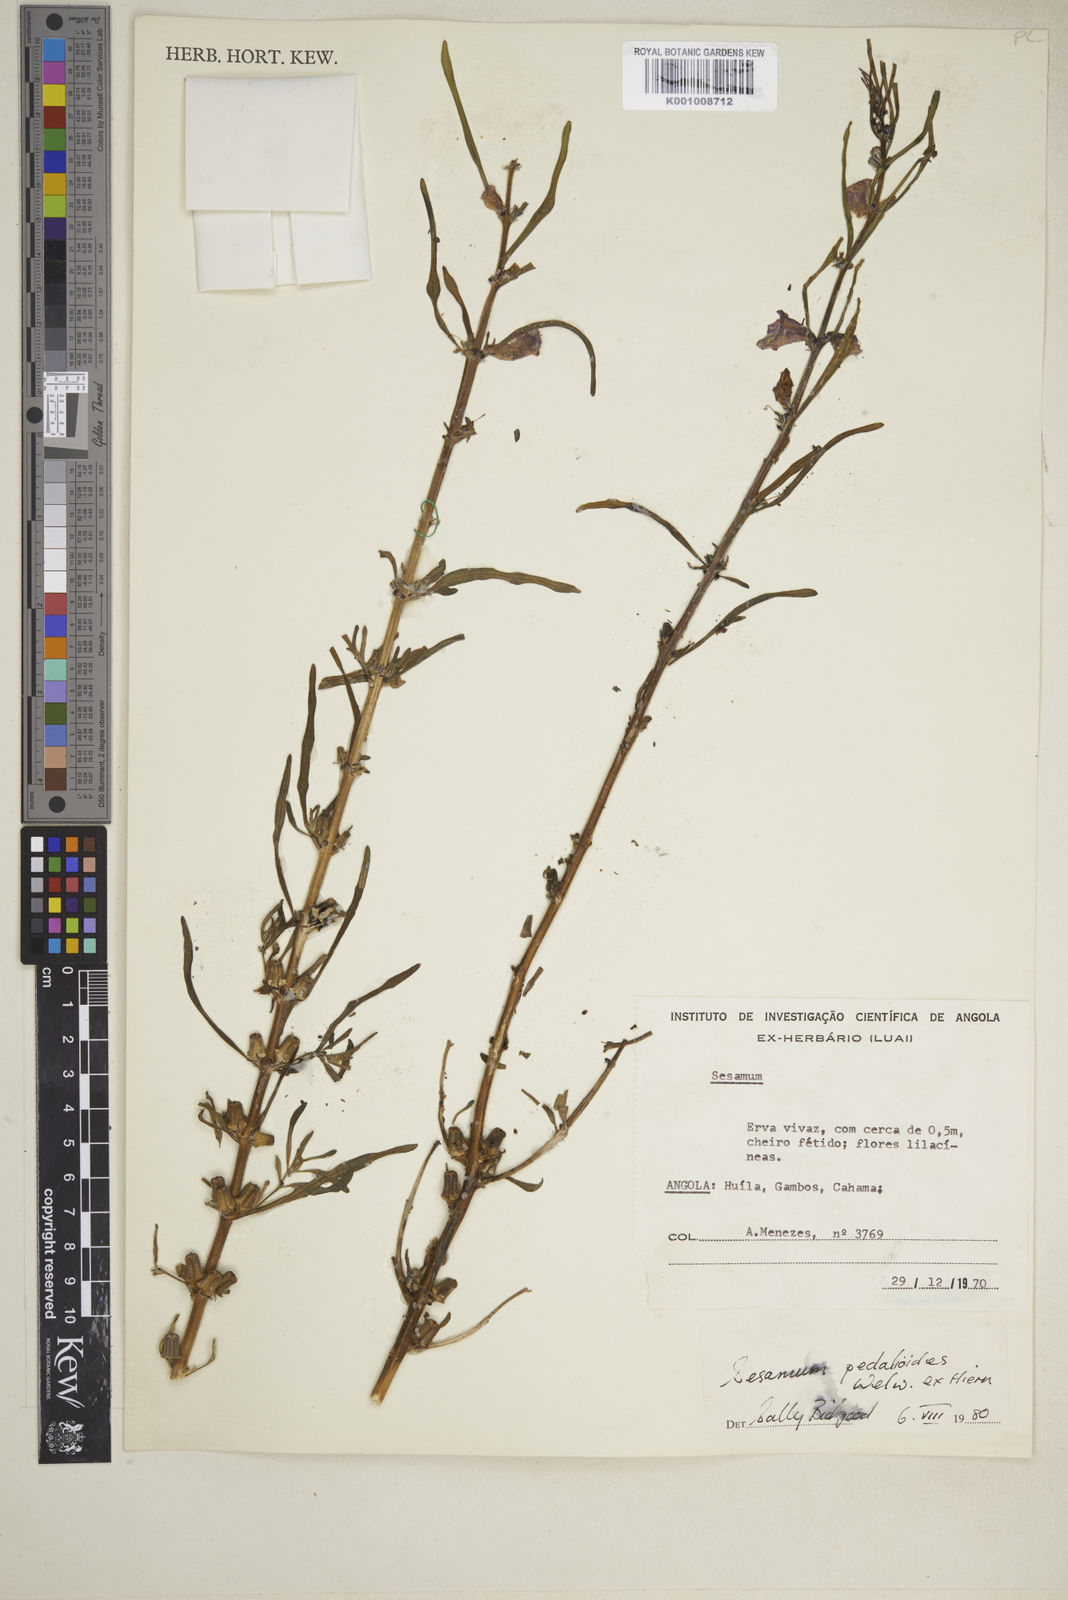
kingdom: Plantae
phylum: Tracheophyta
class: Magnoliopsida
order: Lamiales
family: Pedaliaceae
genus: Sesamum
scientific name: Sesamum pedalioides
